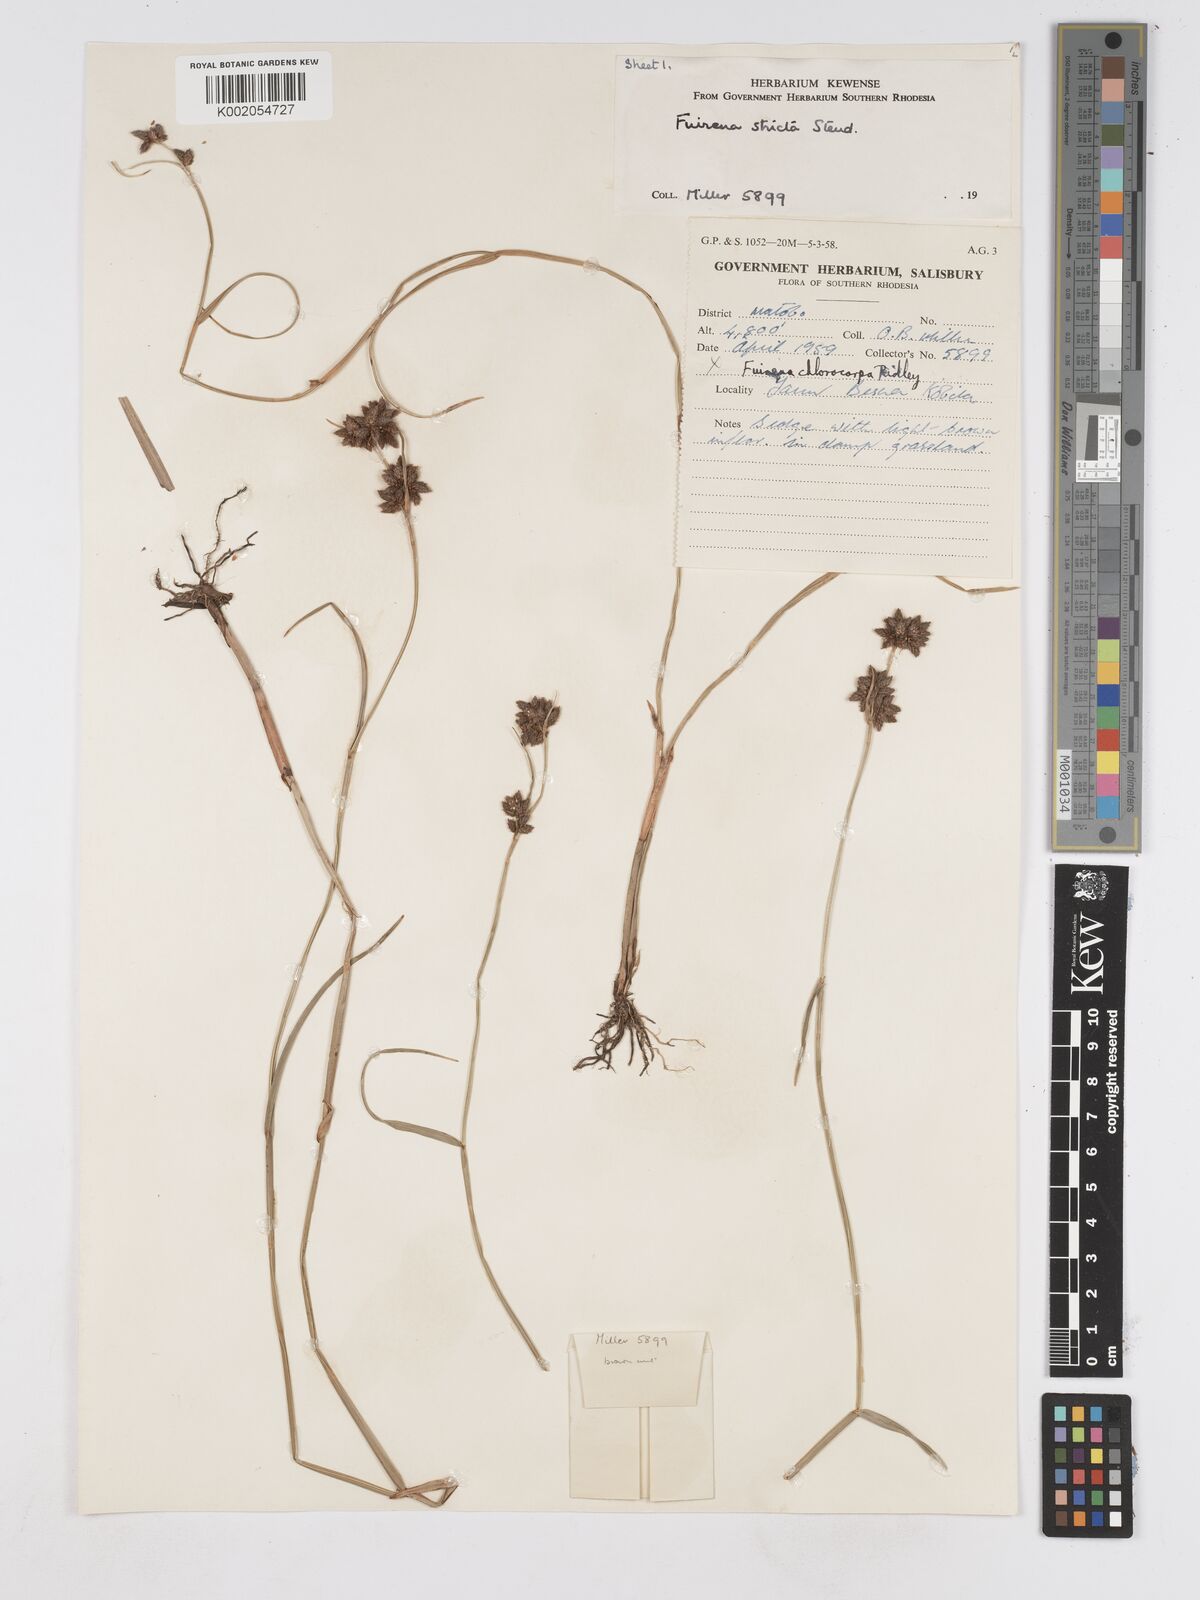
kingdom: Plantae
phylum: Tracheophyta
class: Liliopsida
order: Poales
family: Cyperaceae
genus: Fuirena
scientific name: Fuirena stricta
